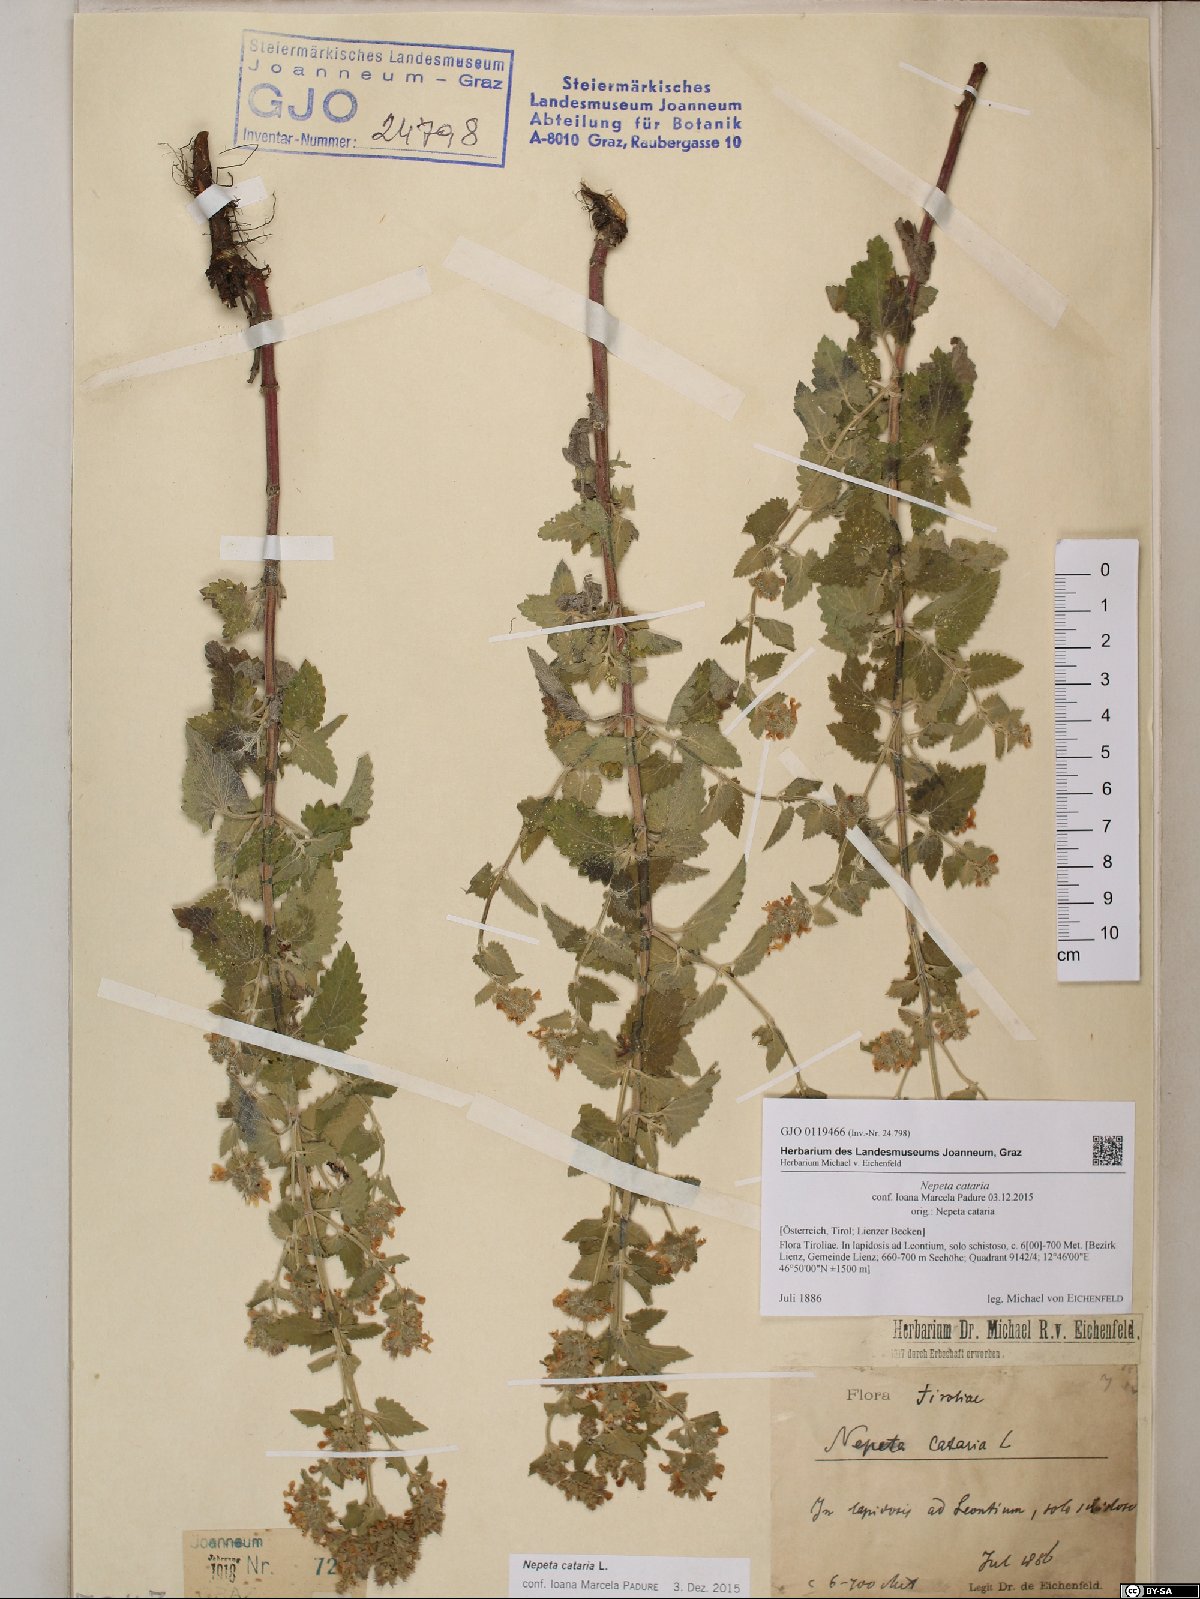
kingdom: Plantae
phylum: Tracheophyta
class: Magnoliopsida
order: Lamiales
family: Lamiaceae
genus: Nepeta
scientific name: Nepeta cataria
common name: Catnip
